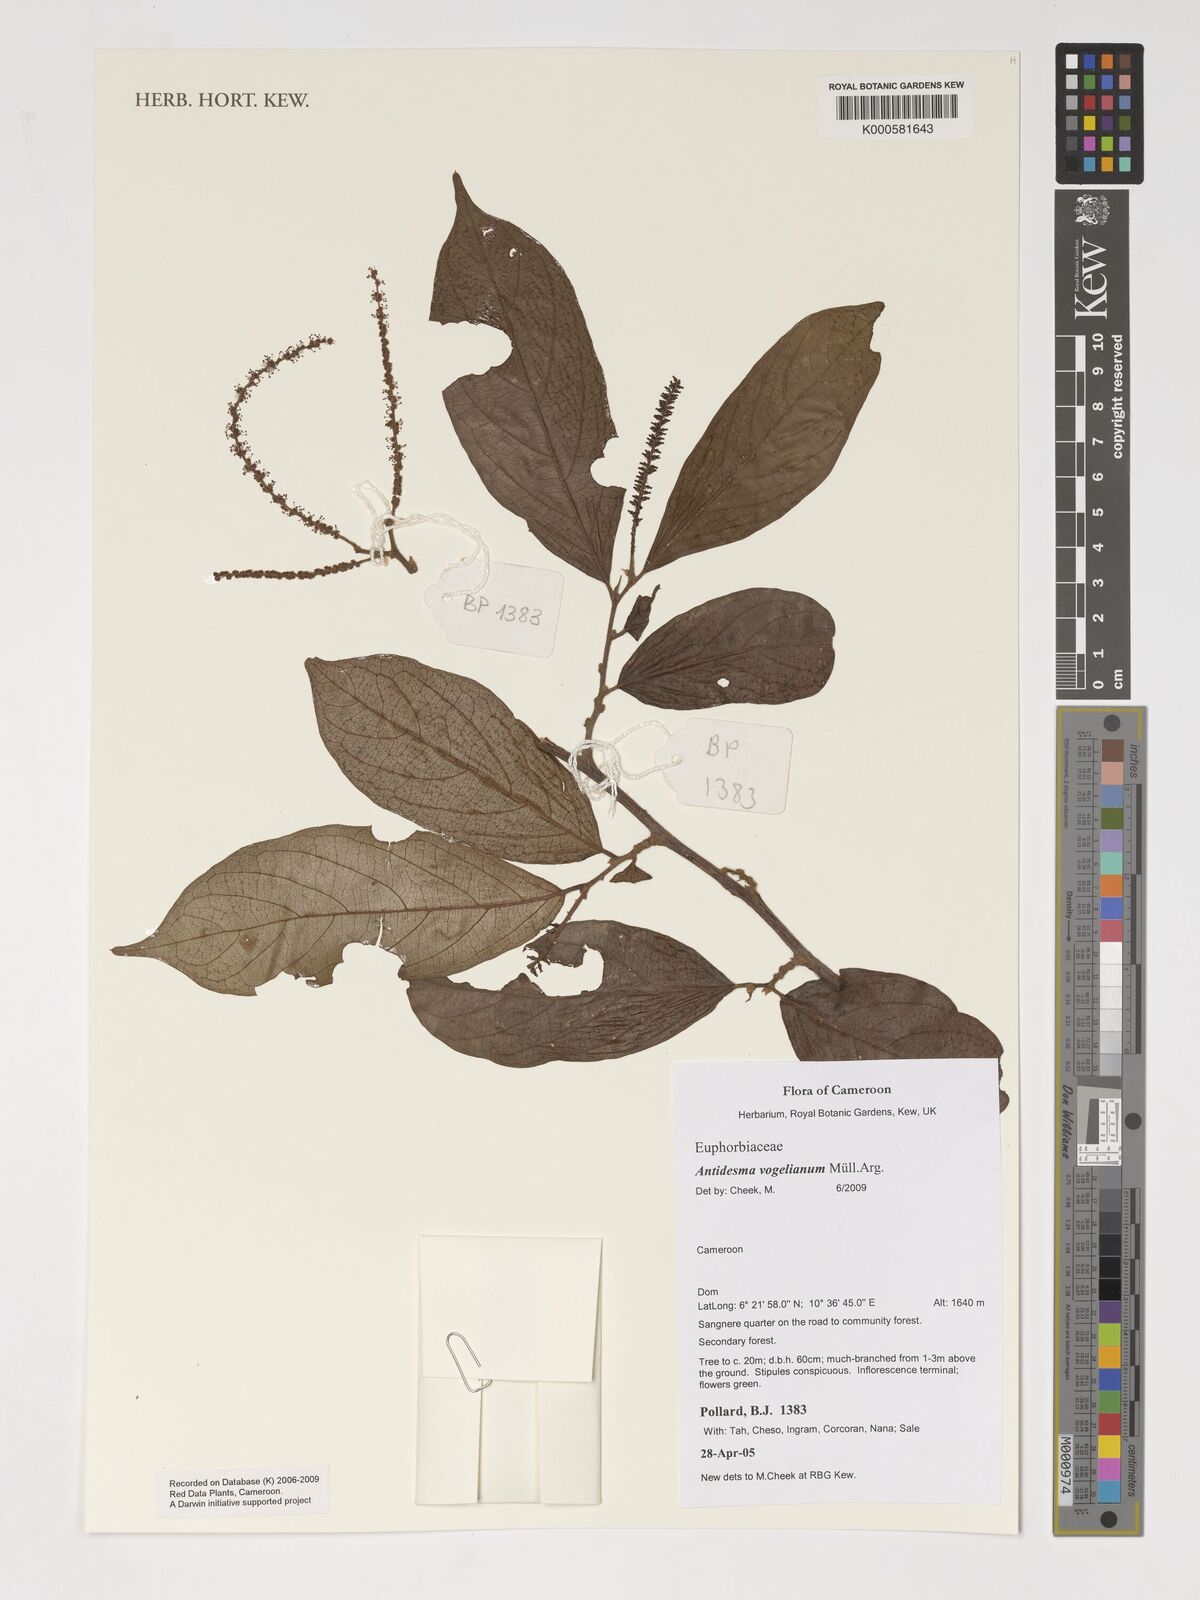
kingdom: Plantae
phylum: Tracheophyta
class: Magnoliopsida
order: Malpighiales
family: Phyllanthaceae
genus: Antidesma
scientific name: Antidesma vogelianum
